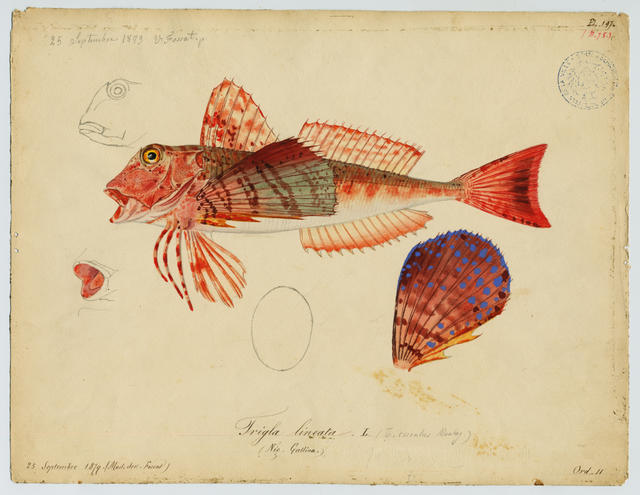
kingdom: Animalia
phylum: Chordata
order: Scorpaeniformes
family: Triglidae
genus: Chelidonichthys
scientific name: Chelidonichthys lastoviza
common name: Streaked gurnard
